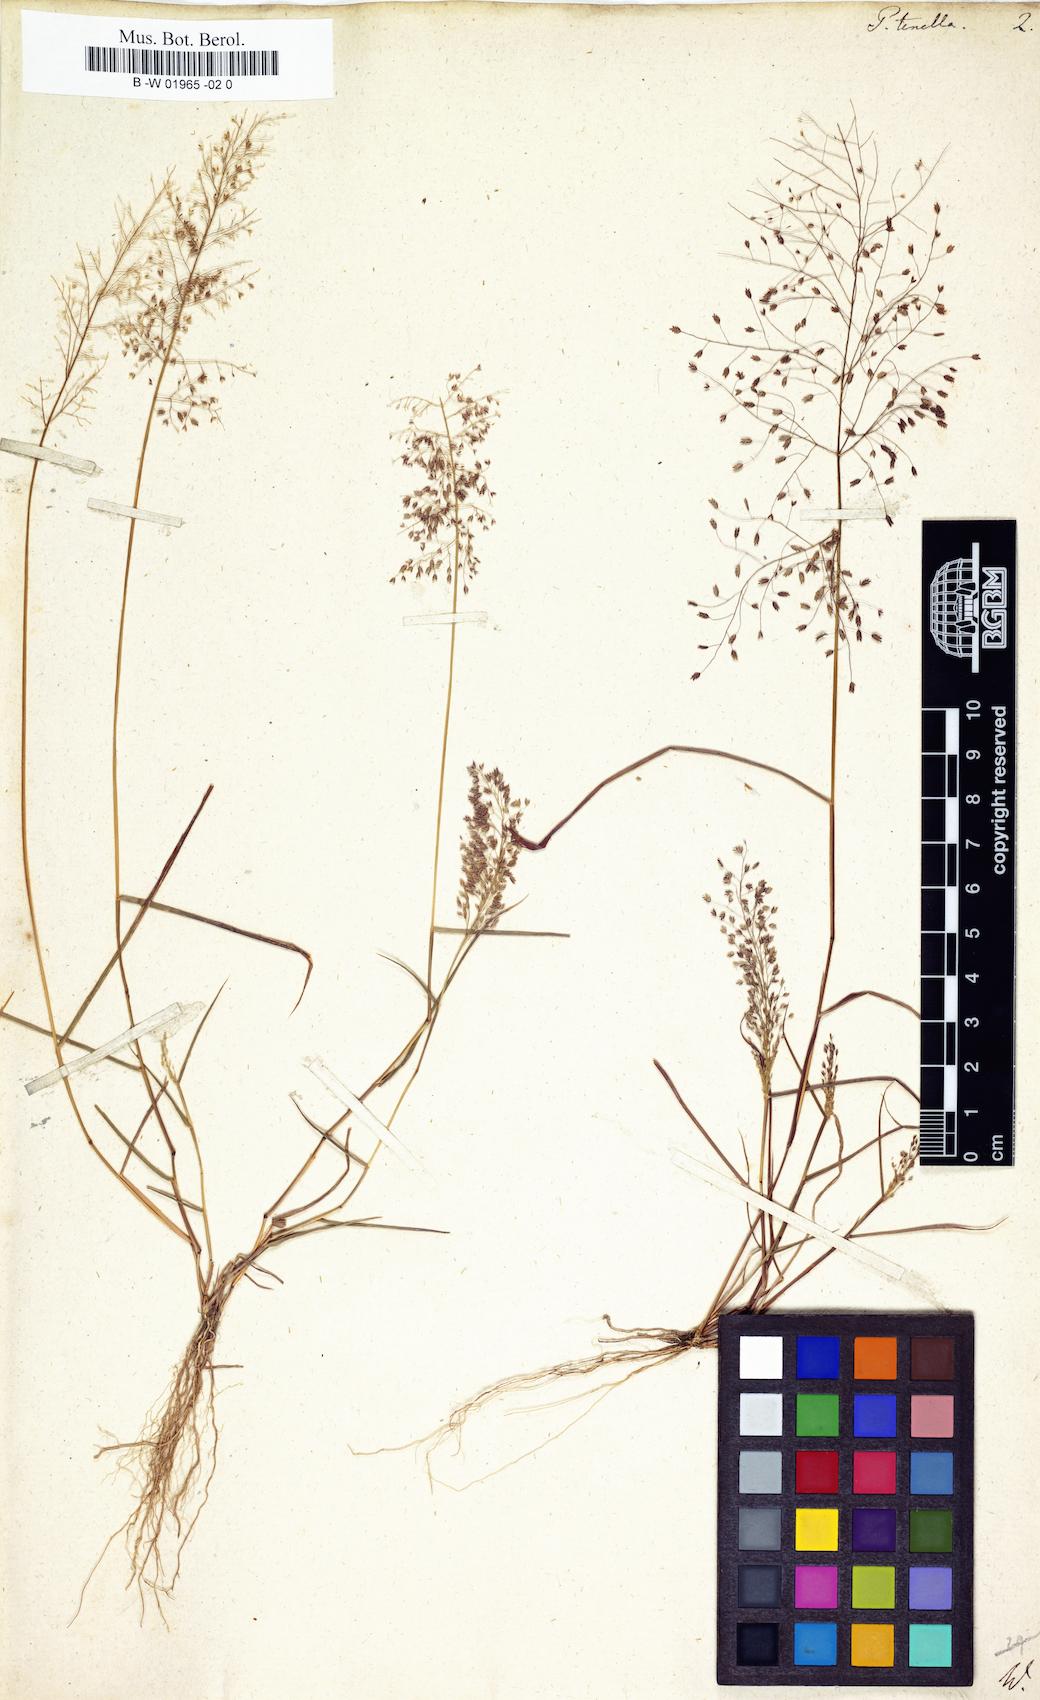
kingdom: Plantae
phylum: Tracheophyta
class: Liliopsida
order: Poales
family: Poaceae
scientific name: Poaceae
